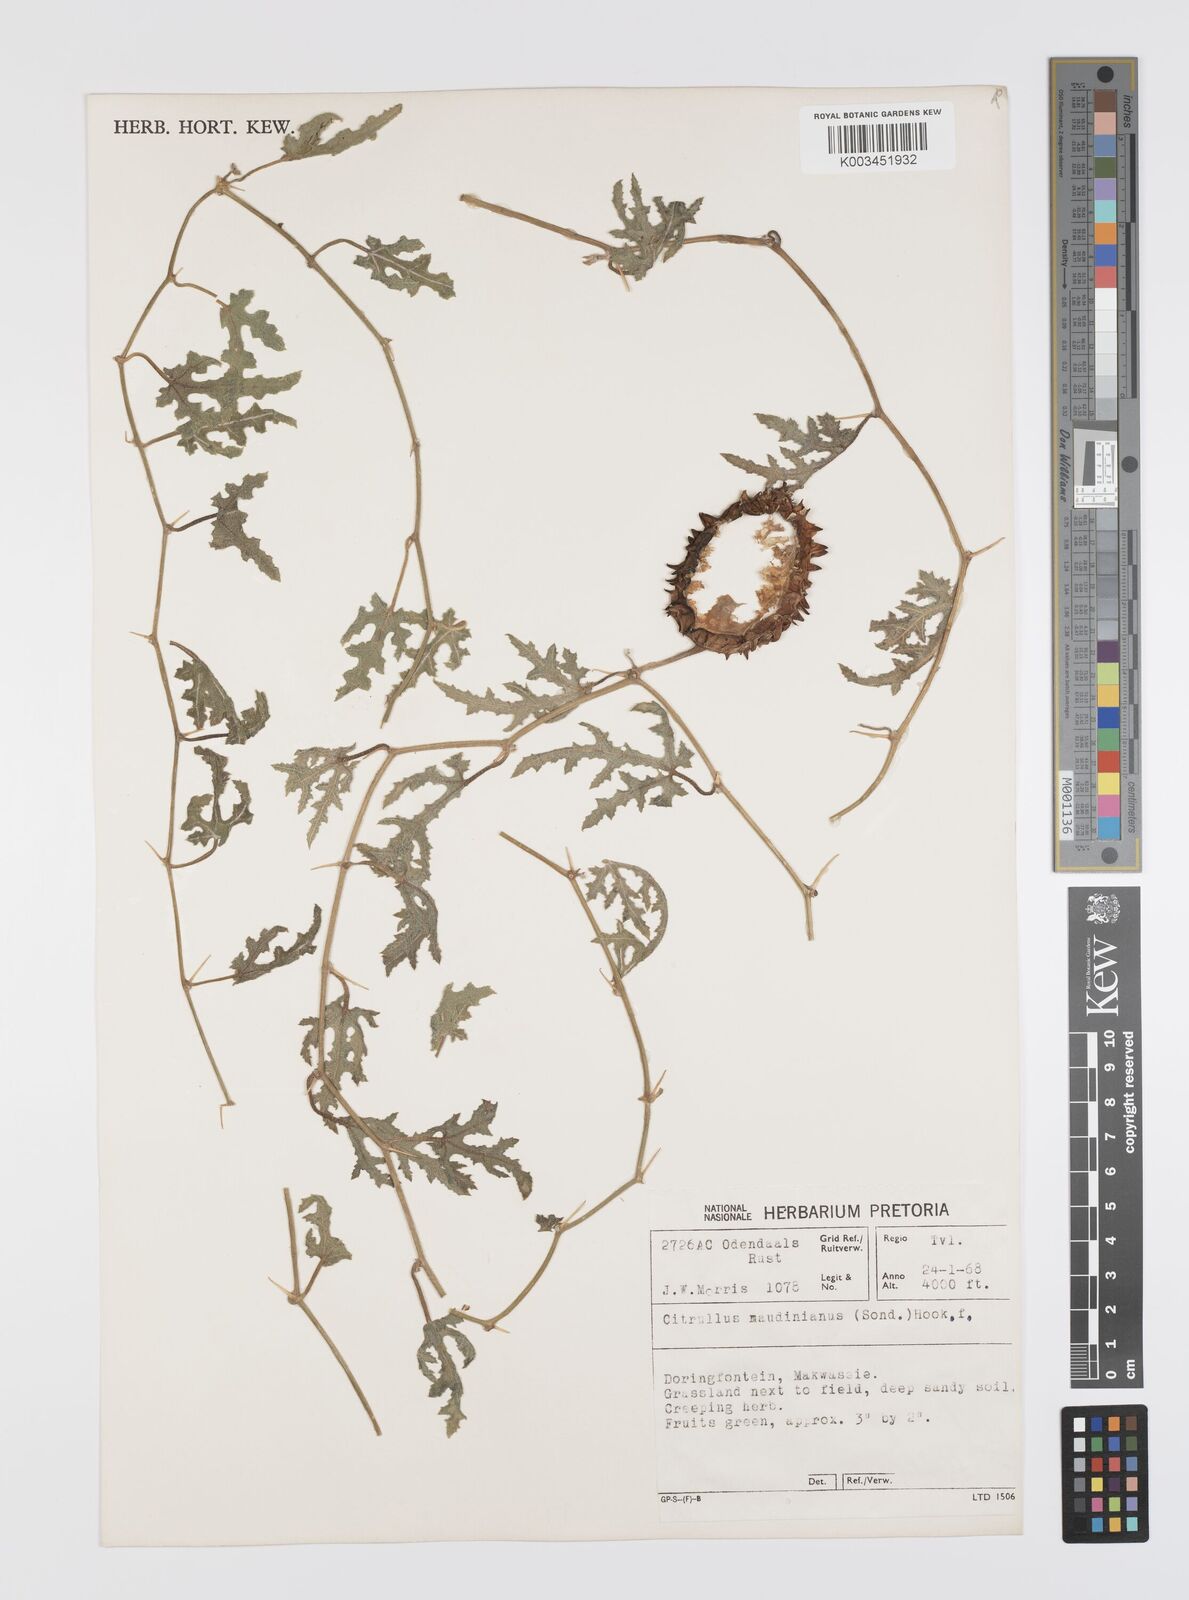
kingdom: Plantae
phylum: Tracheophyta
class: Magnoliopsida
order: Cucurbitales
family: Cucurbitaceae
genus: Citrullus
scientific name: Citrullus naudinianus
